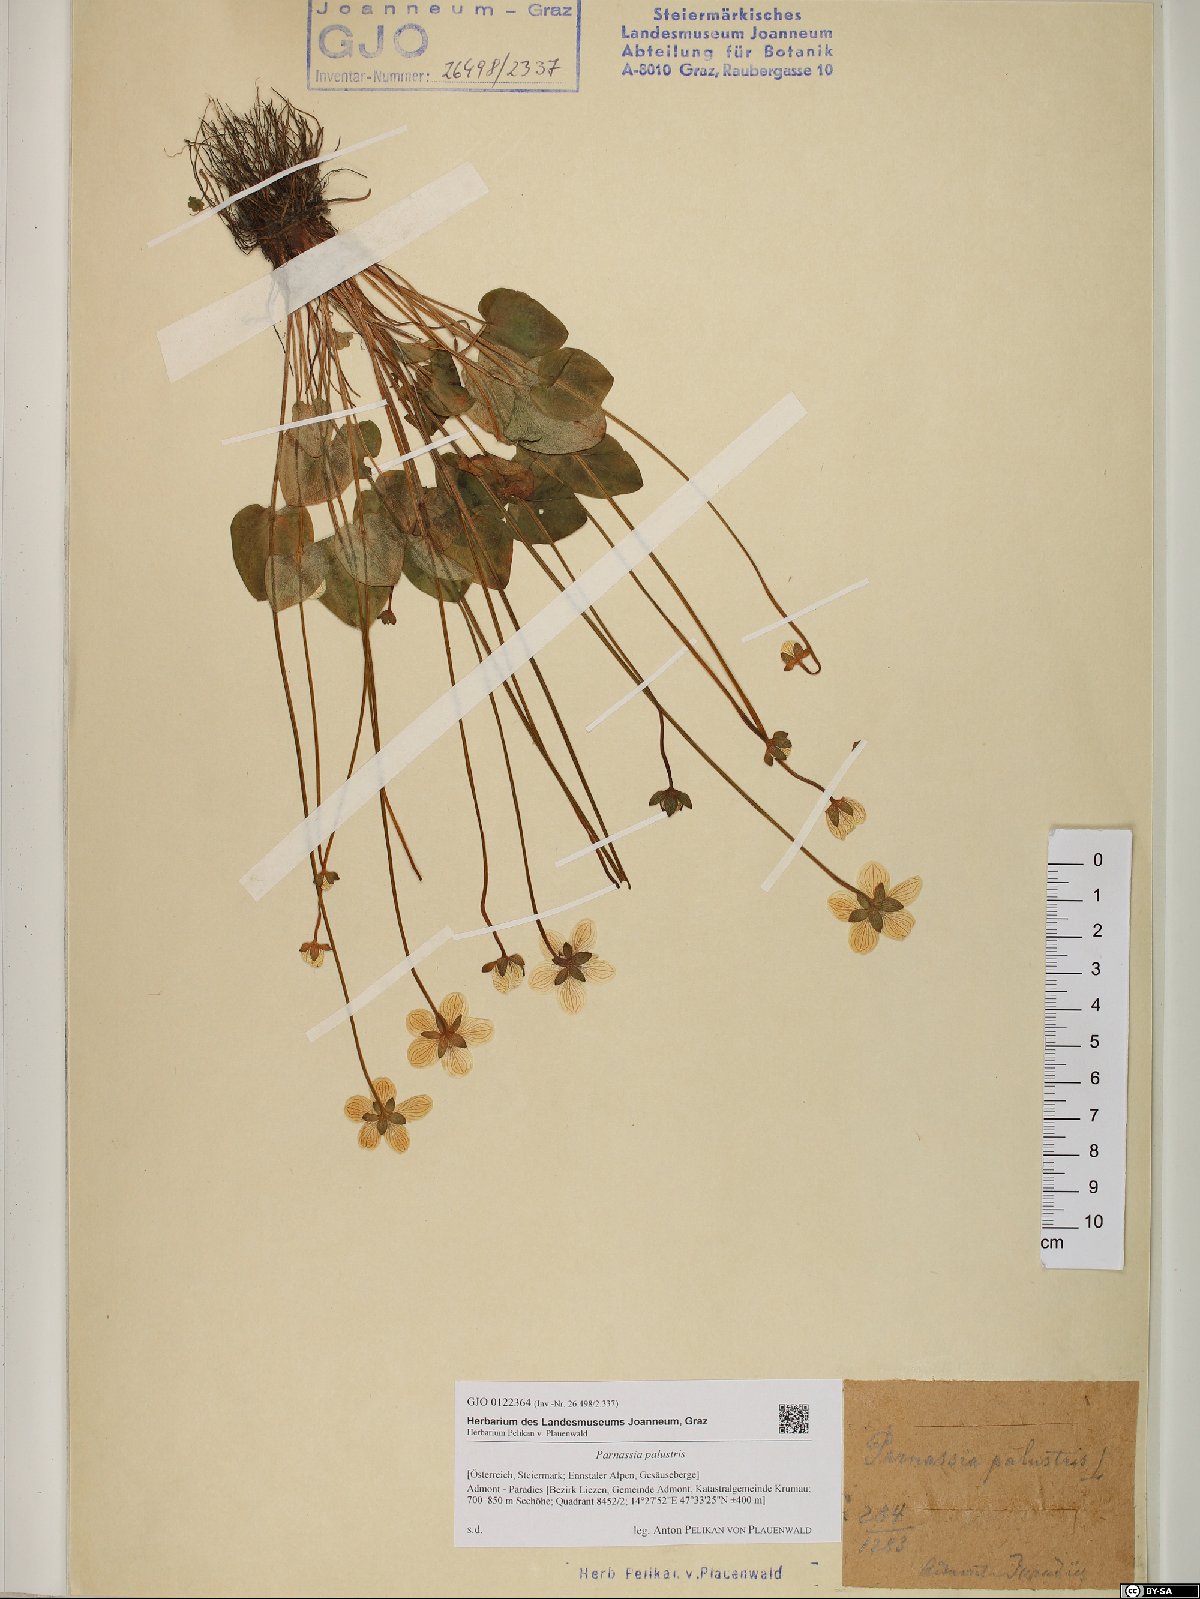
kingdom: Plantae
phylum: Tracheophyta
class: Magnoliopsida
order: Celastrales
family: Parnassiaceae
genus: Parnassia
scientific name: Parnassia palustris
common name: Grass-of-parnassus
